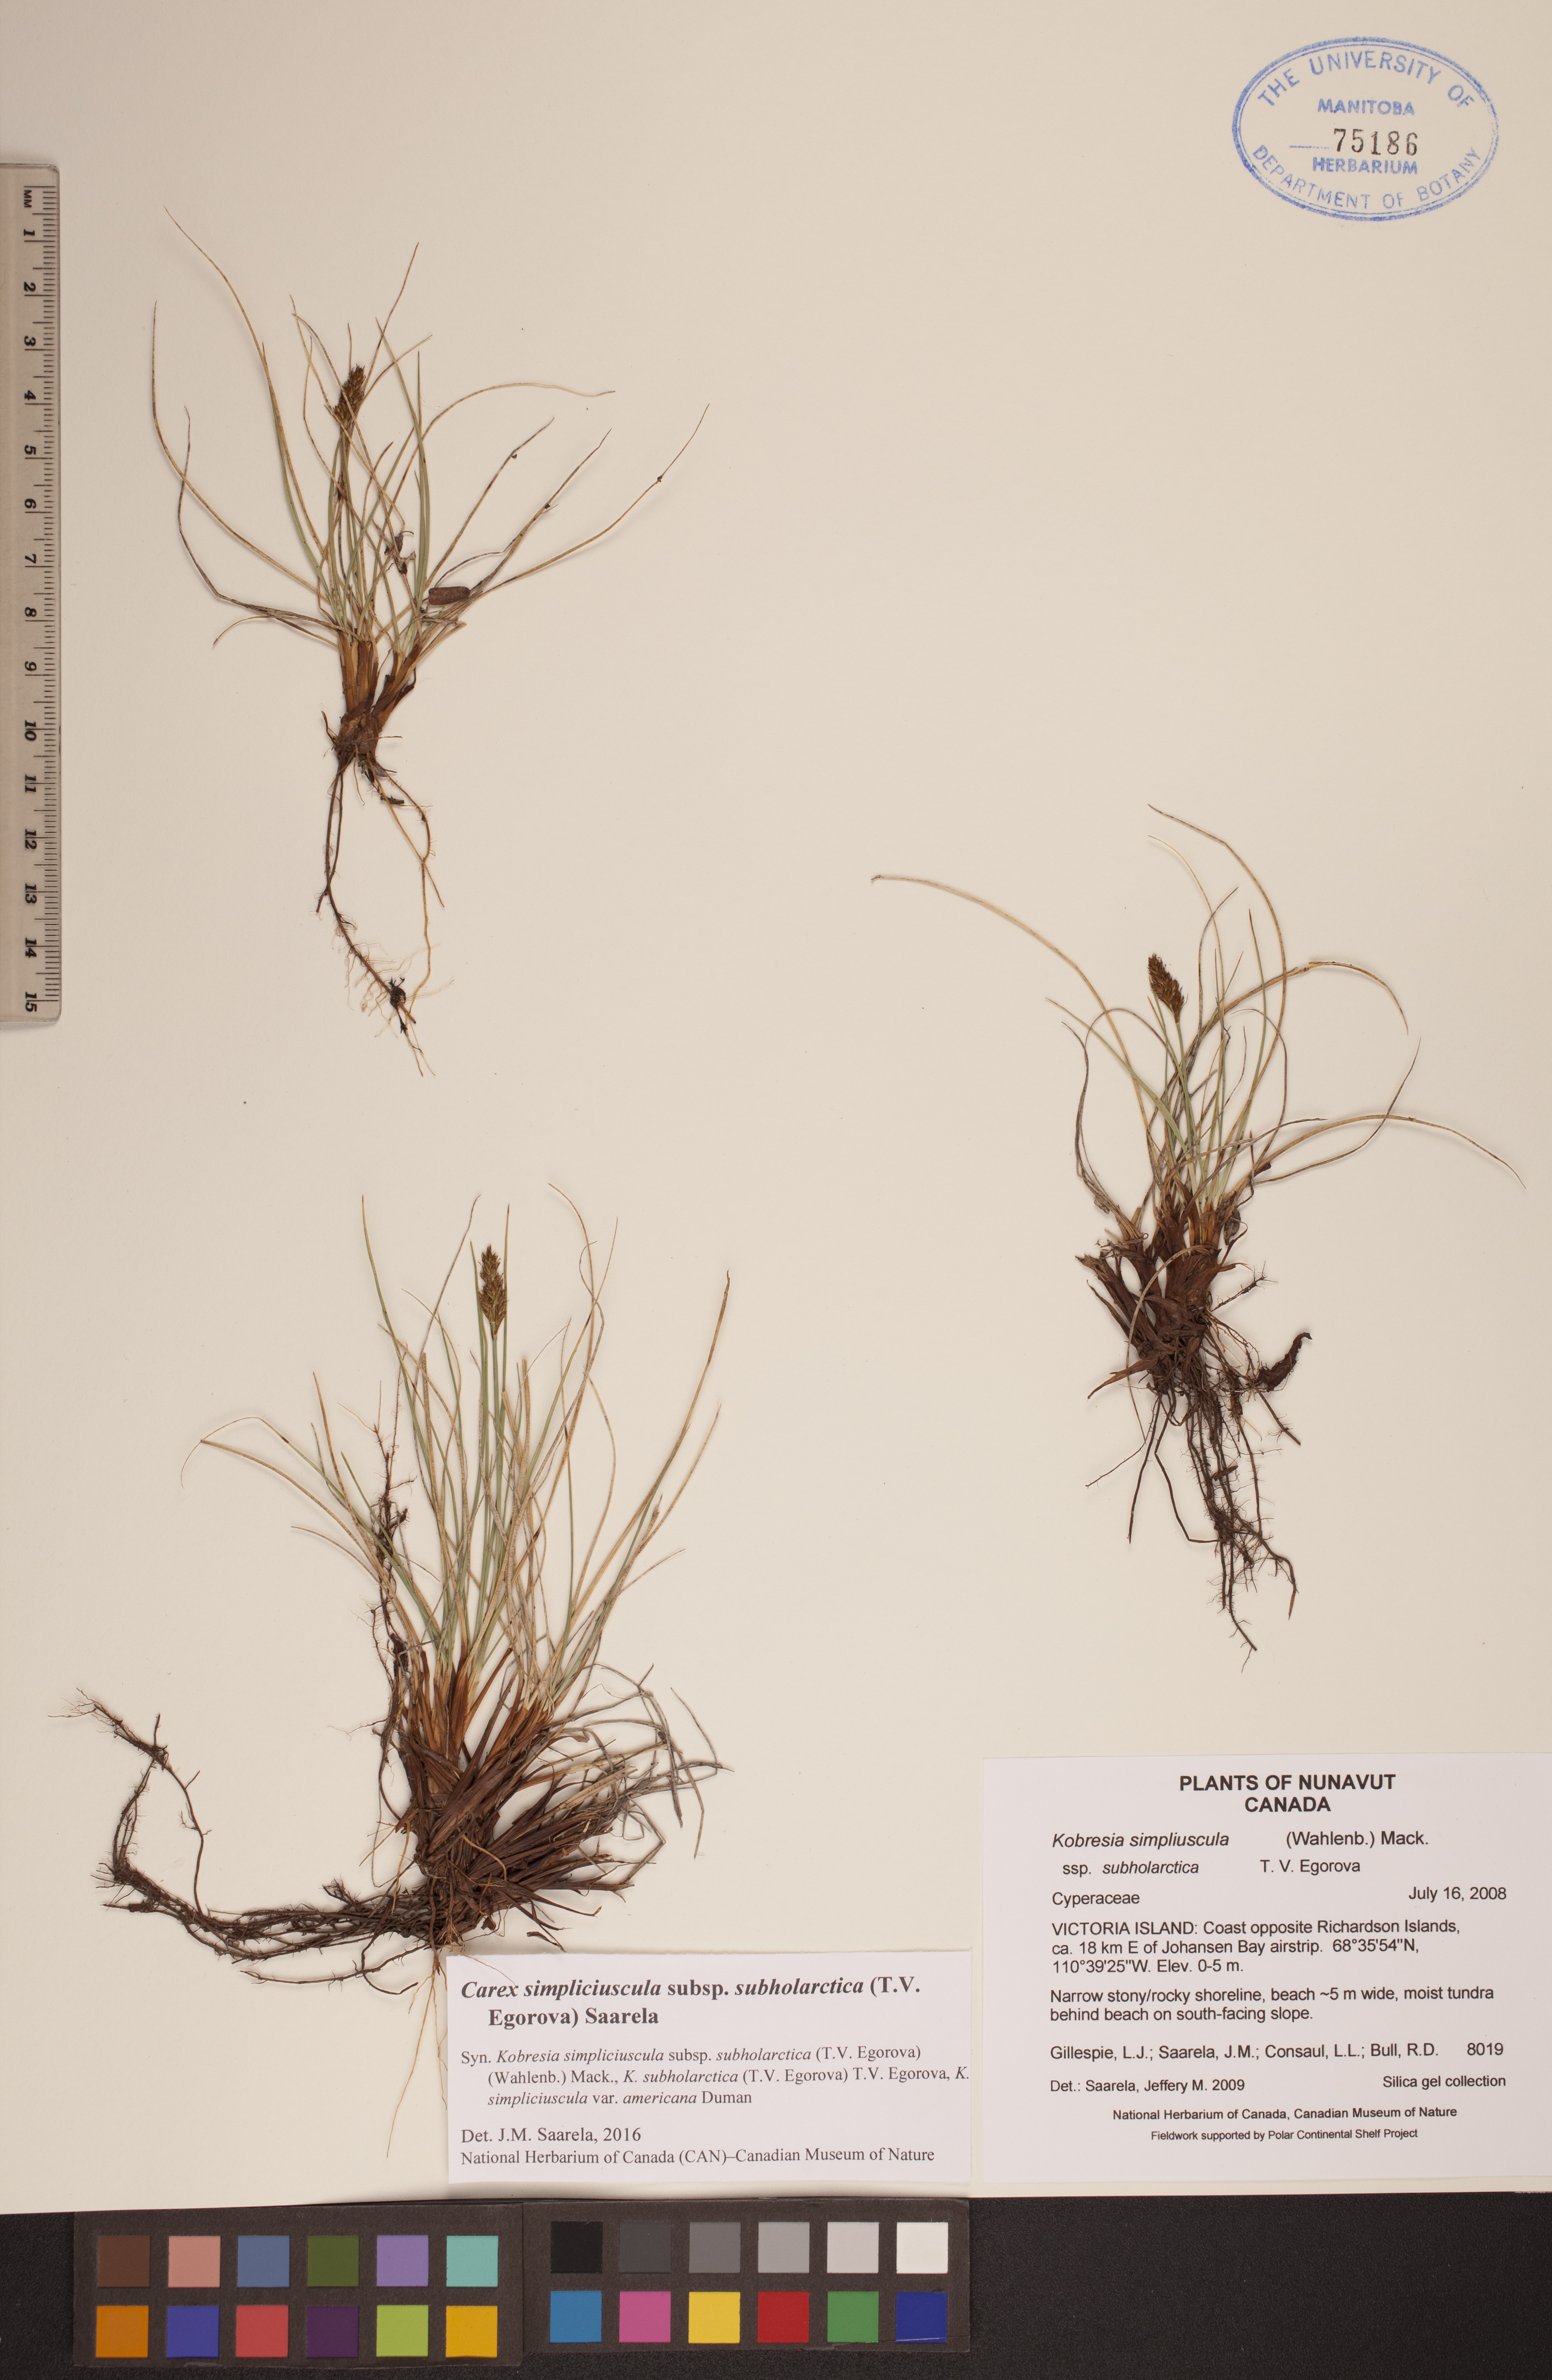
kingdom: Plantae
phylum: Tracheophyta
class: Liliopsida
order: Poales
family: Cyperaceae
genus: Carex
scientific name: Carex simpliciuscula
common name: Simple bog sedge
